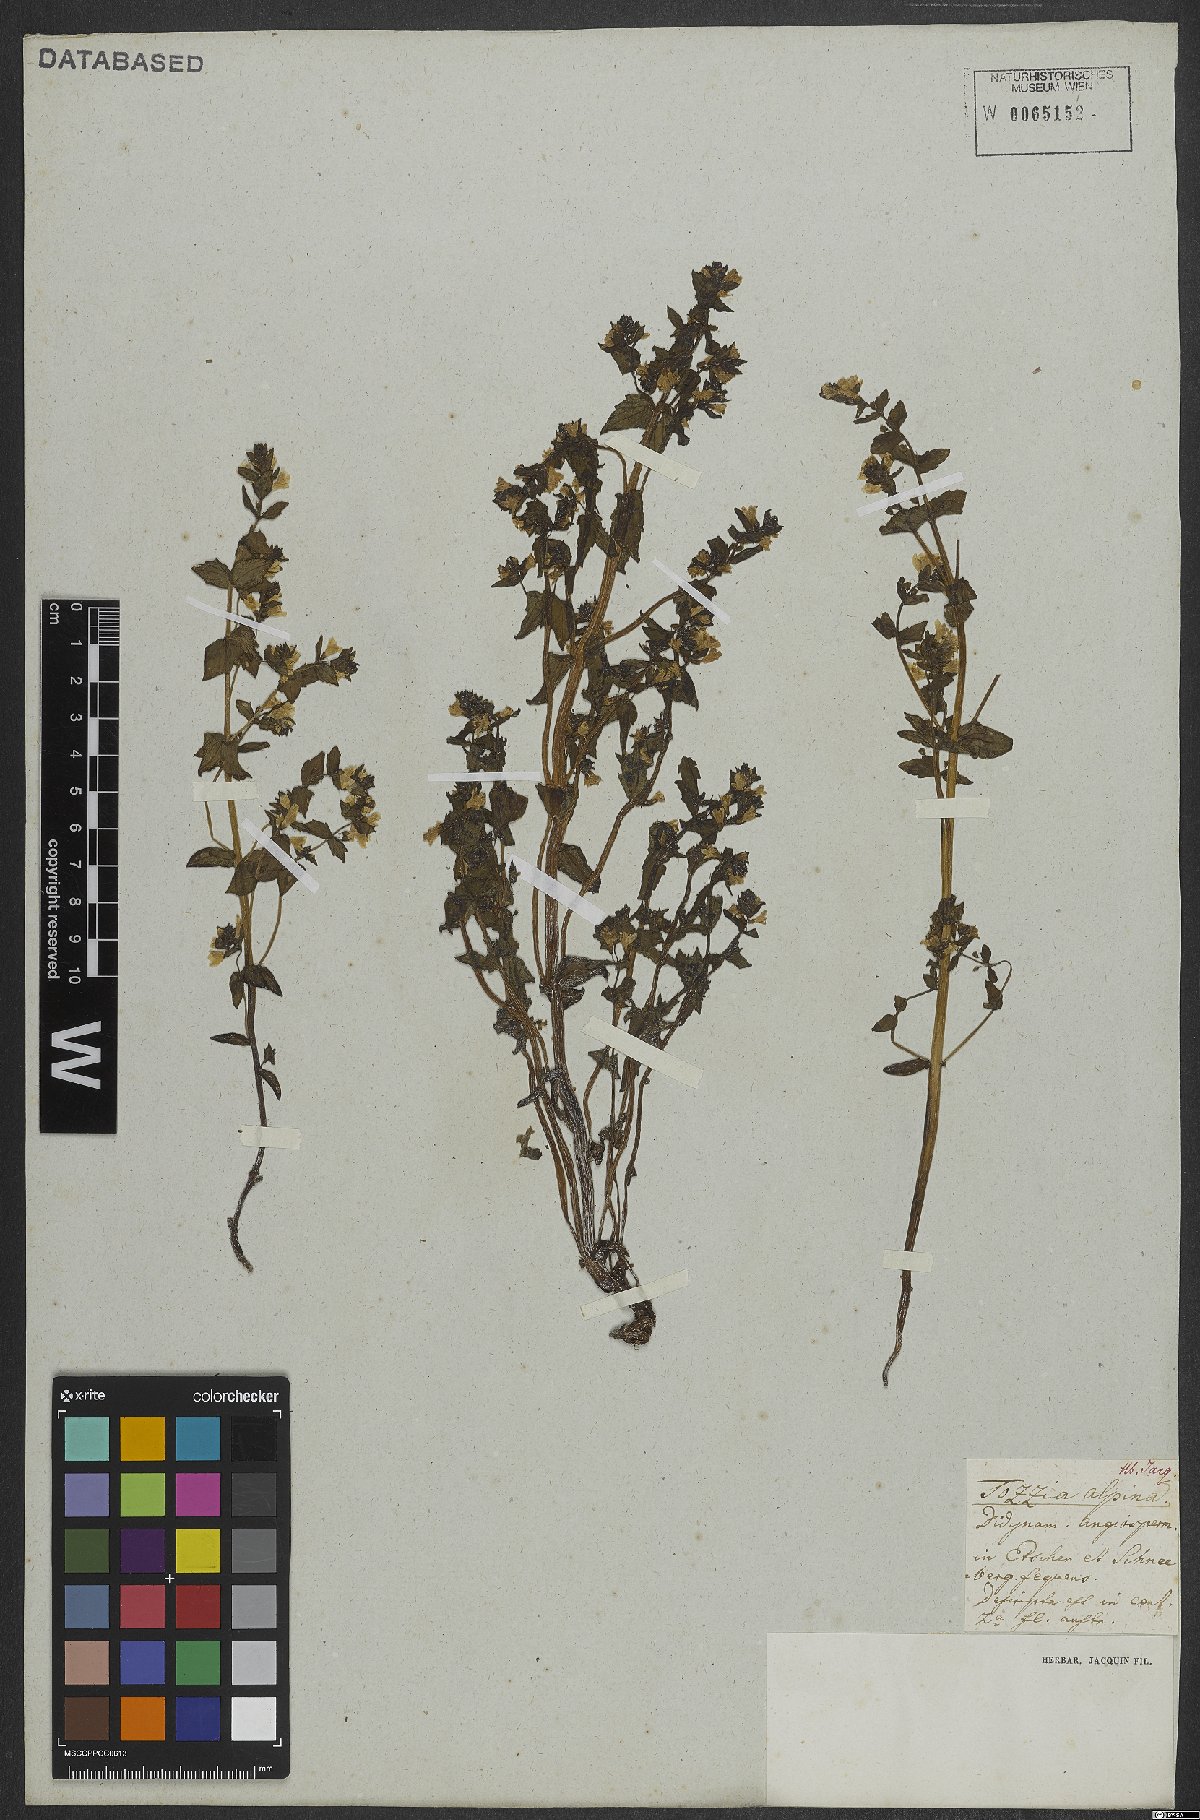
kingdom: Plantae
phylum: Tracheophyta
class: Magnoliopsida
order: Lamiales
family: Orobanchaceae
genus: Tozzia
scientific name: Tozzia alpina
